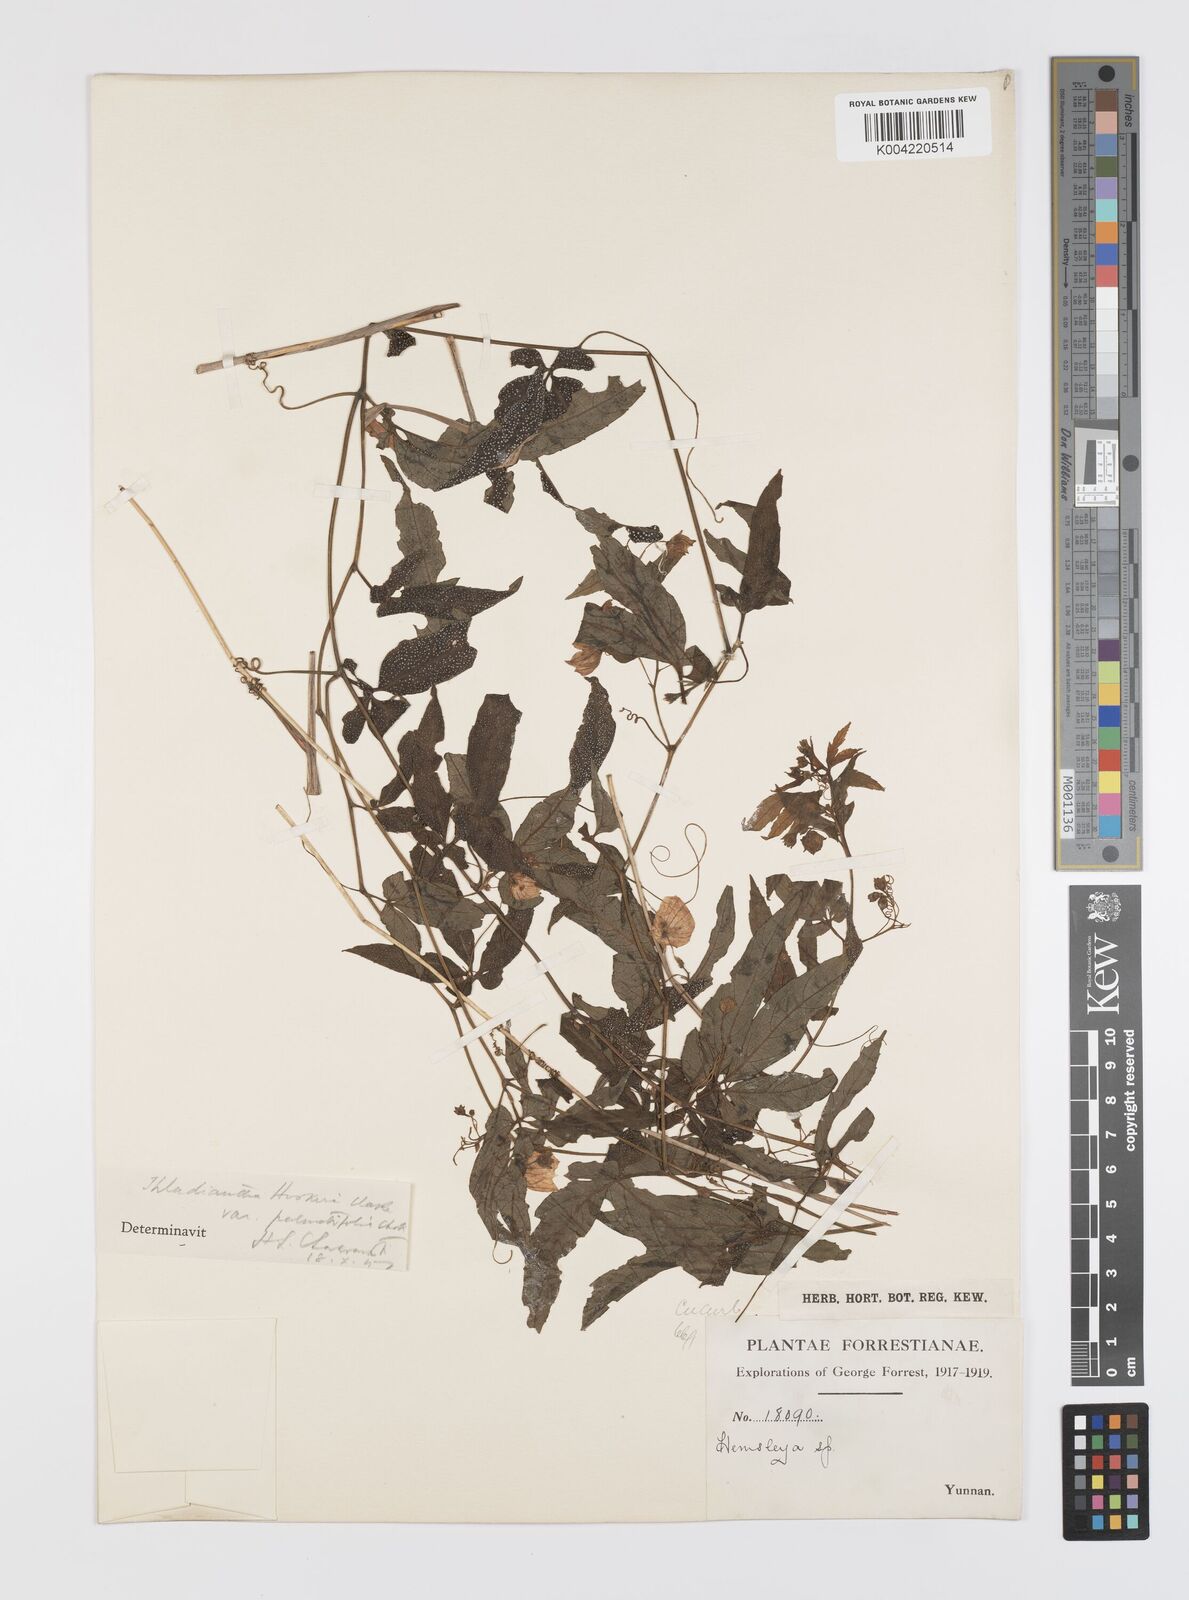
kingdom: Plantae
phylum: Tracheophyta
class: Magnoliopsida
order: Cucurbitales
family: Cucurbitaceae
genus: Thladiantha
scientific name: Thladiantha hookeri
